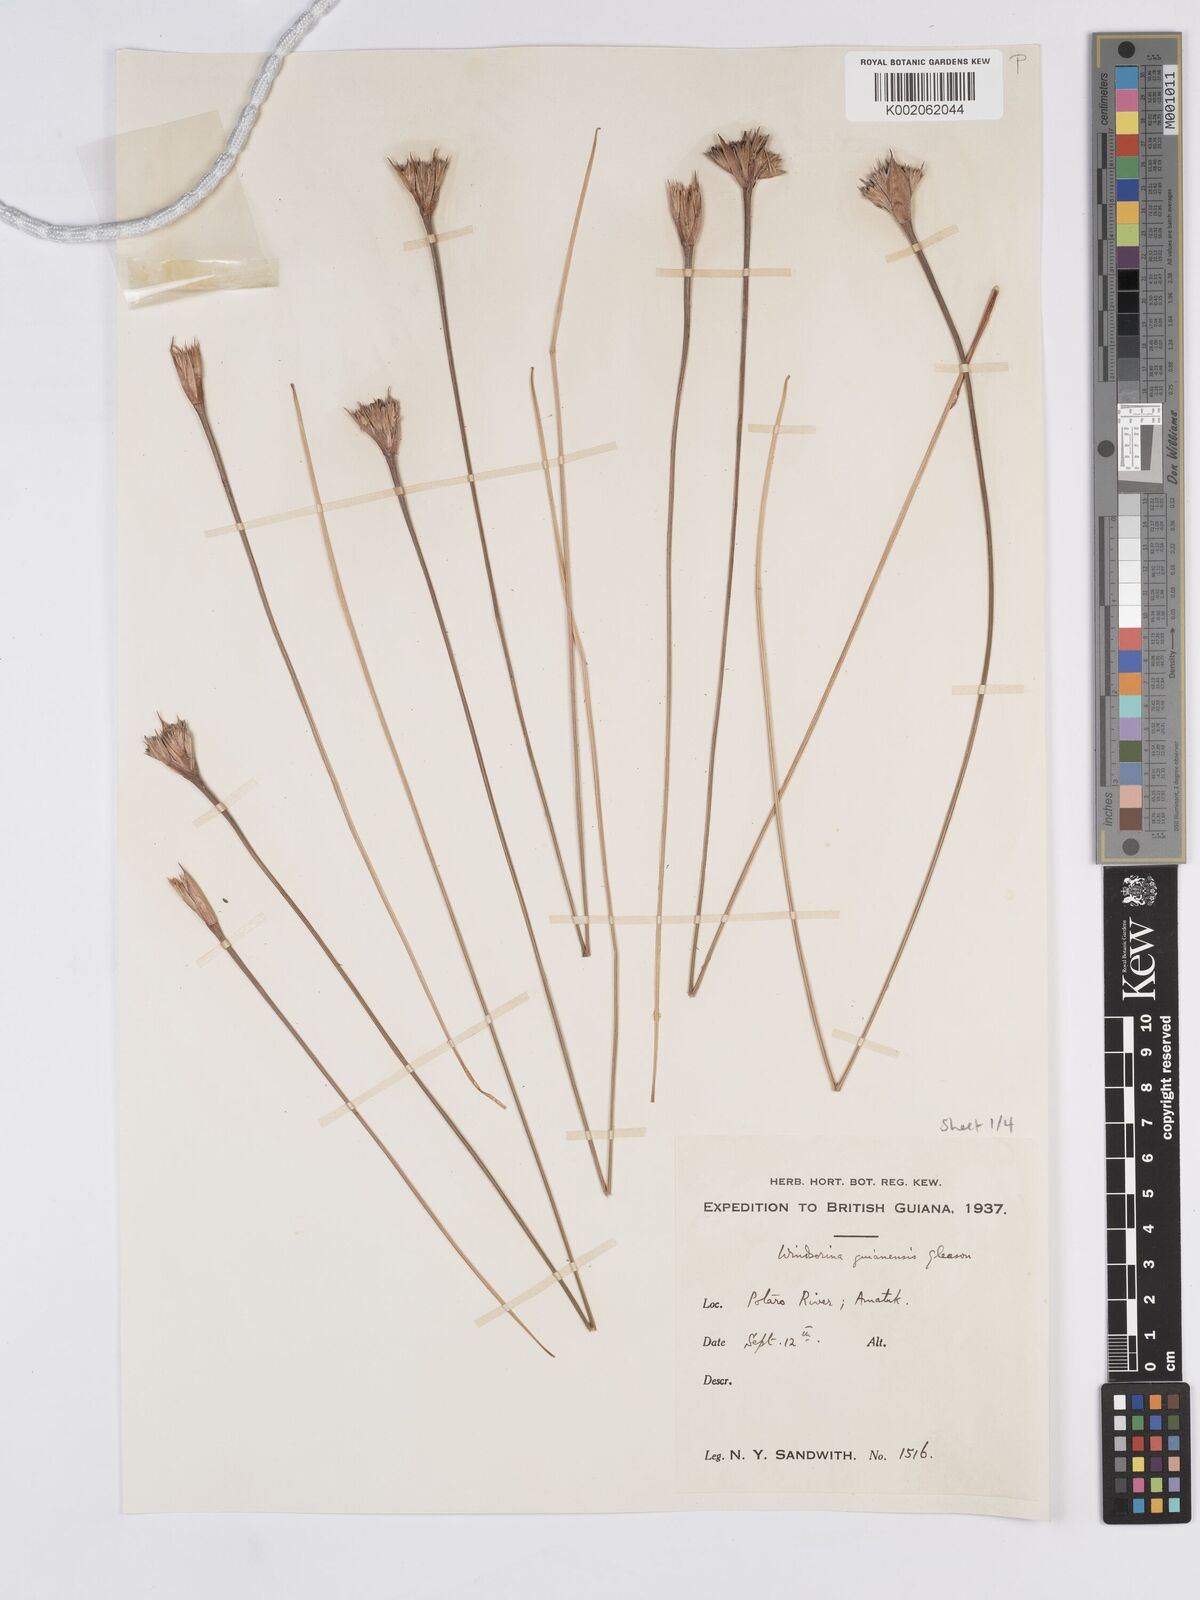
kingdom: Plantae
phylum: Tracheophyta
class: Liliopsida
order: Poales
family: Rapateaceae
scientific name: Rapateaceae
